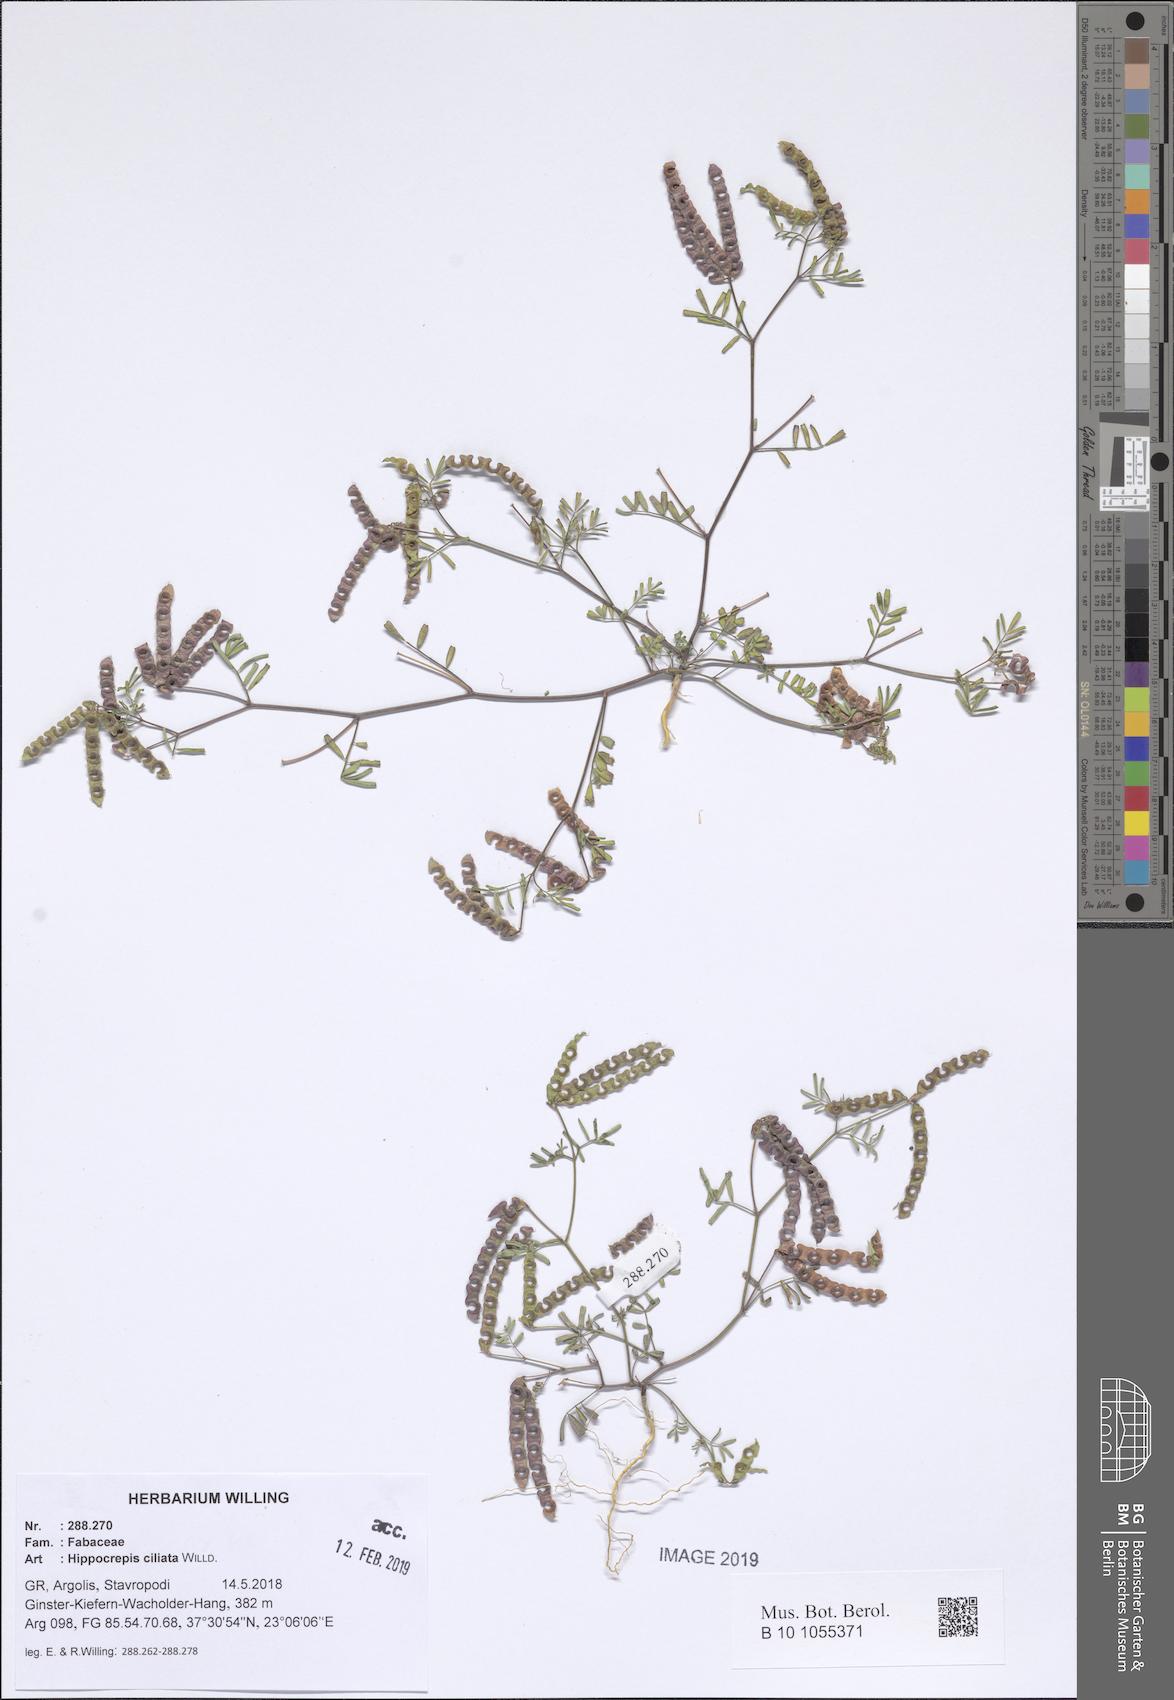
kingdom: Plantae
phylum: Tracheophyta
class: Magnoliopsida
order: Fabales
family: Fabaceae
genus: Hippocrepis
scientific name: Hippocrepis ciliata
